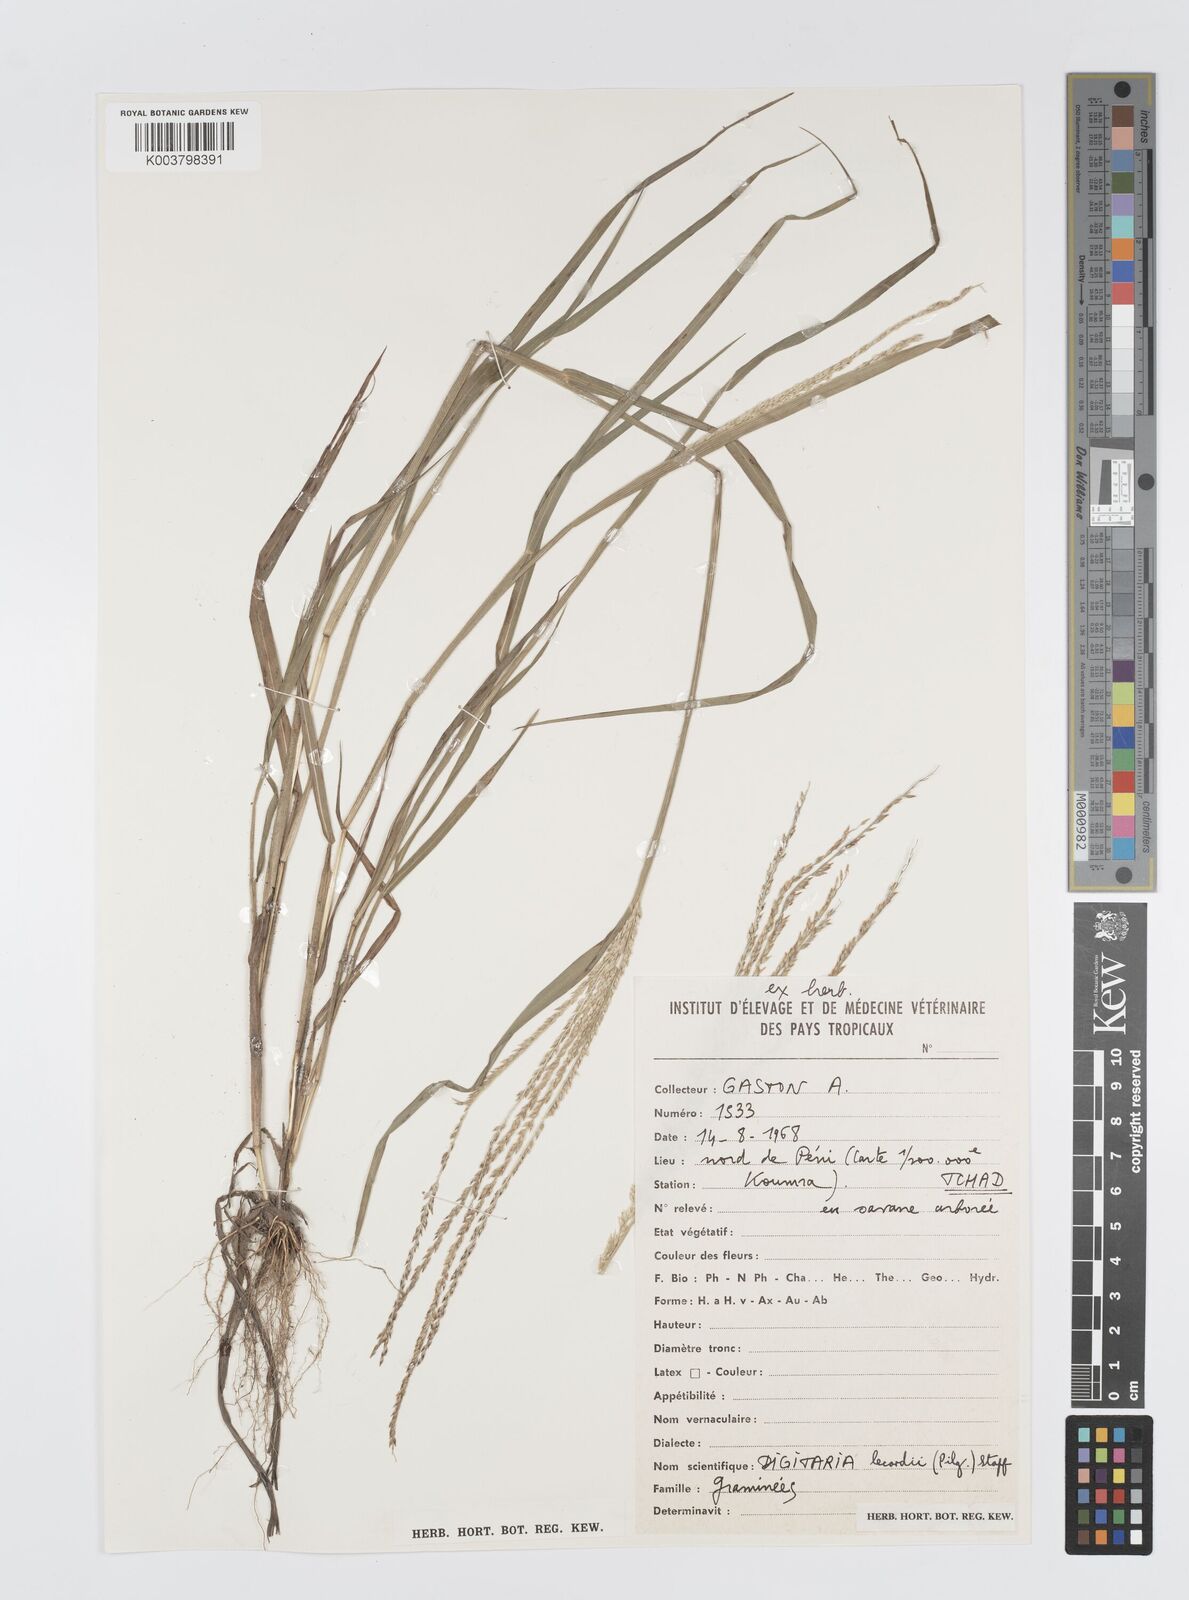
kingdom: Plantae
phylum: Tracheophyta
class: Liliopsida
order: Poales
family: Poaceae
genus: Digitaria
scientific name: Digitaria argillacea
